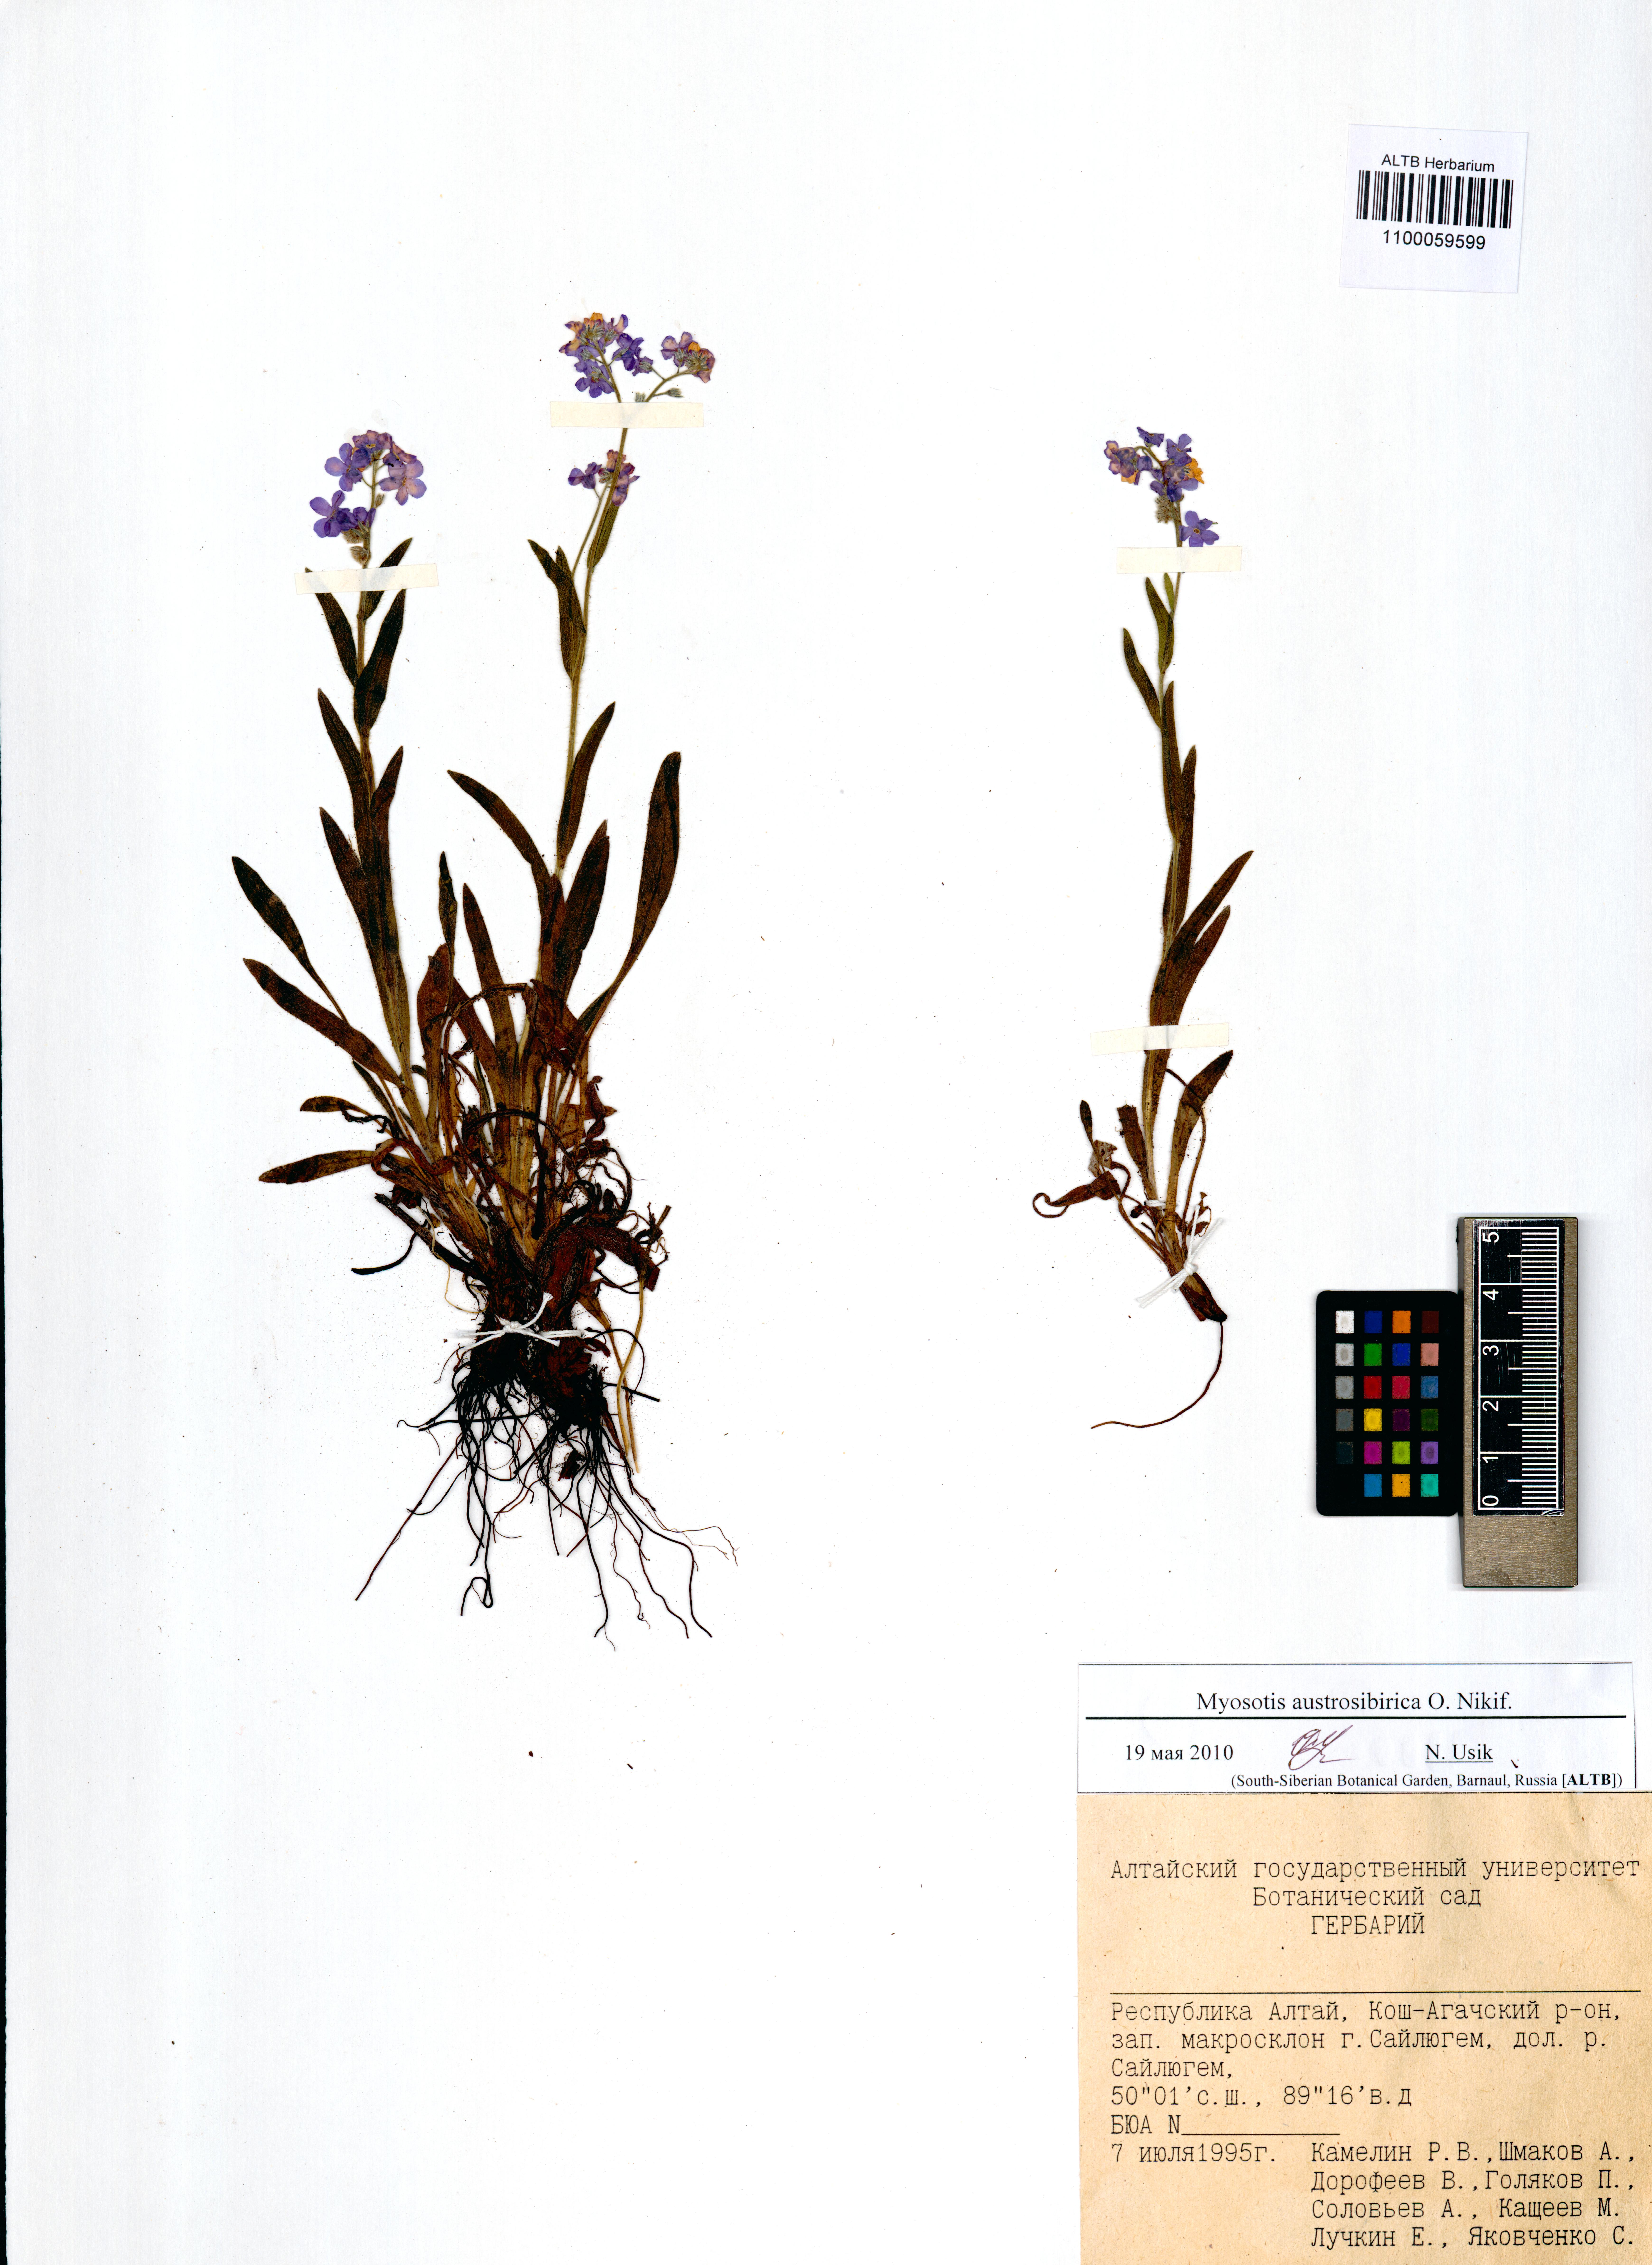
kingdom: Plantae
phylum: Tracheophyta
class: Magnoliopsida
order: Boraginales
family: Boraginaceae
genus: Myosotis
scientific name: Myosotis austrosibirica
